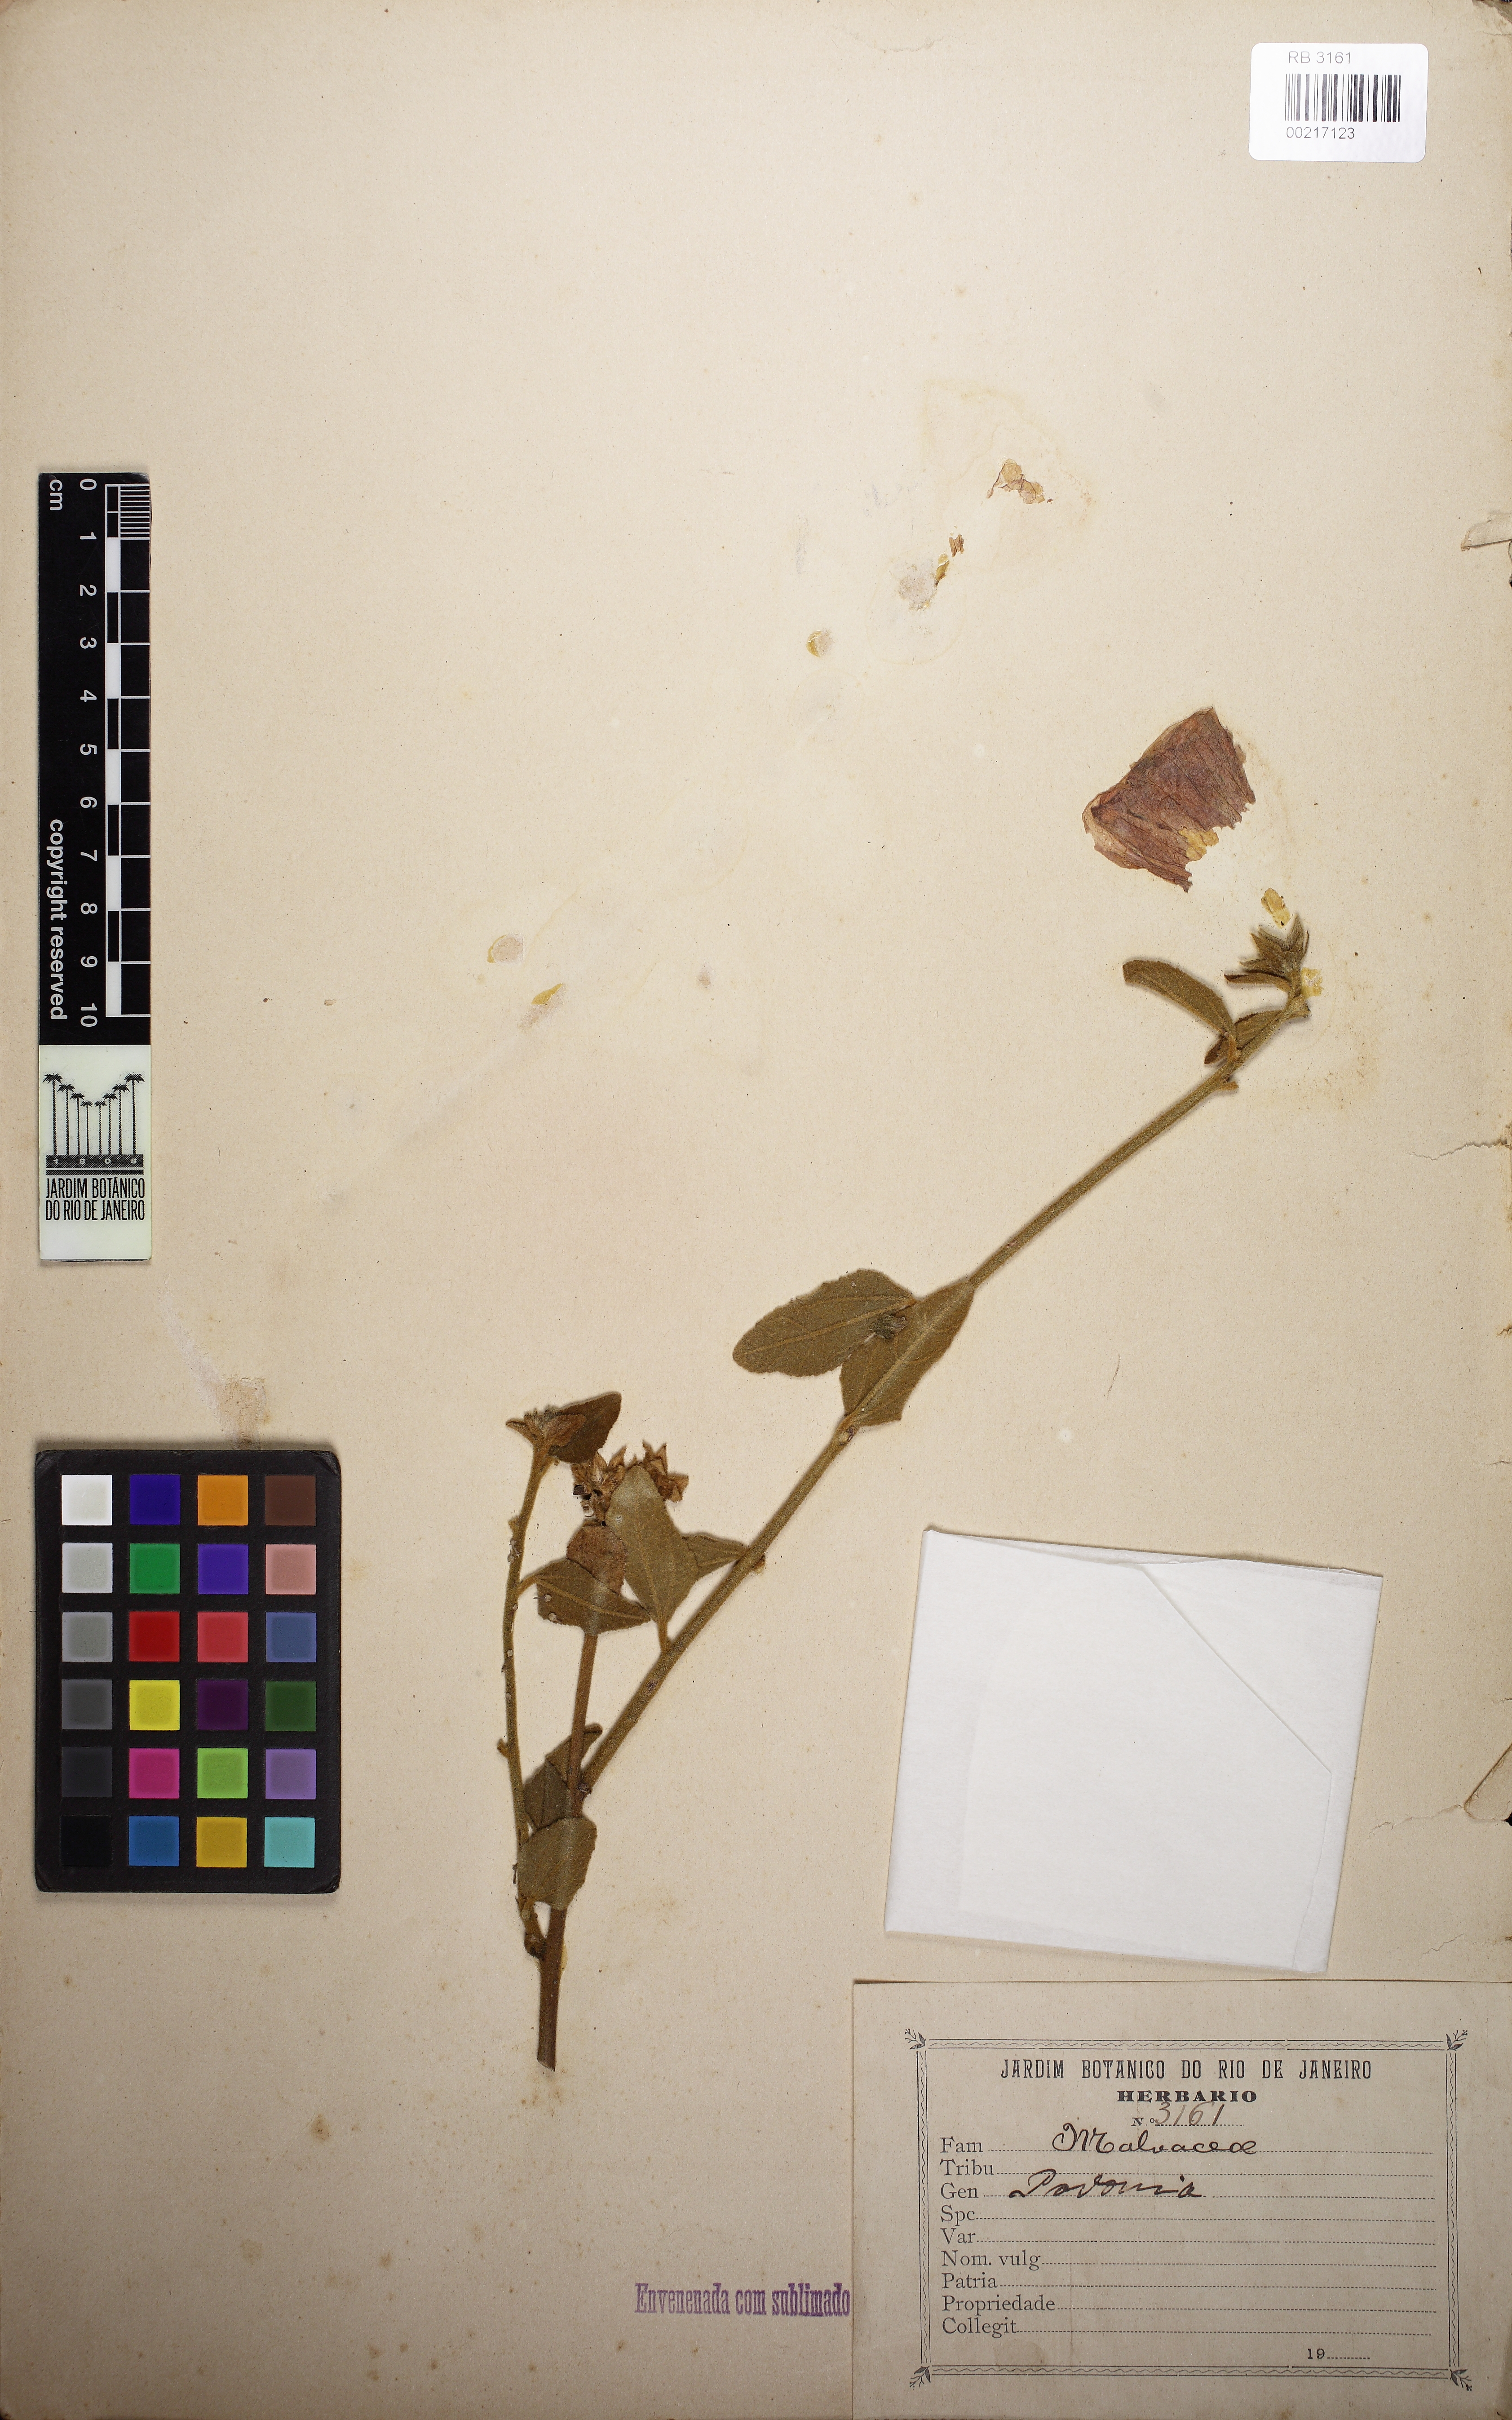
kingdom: Plantae
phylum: Tracheophyta
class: Magnoliopsida
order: Malvales
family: Malvaceae
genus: Pavonia
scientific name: Pavonia angustifolia
